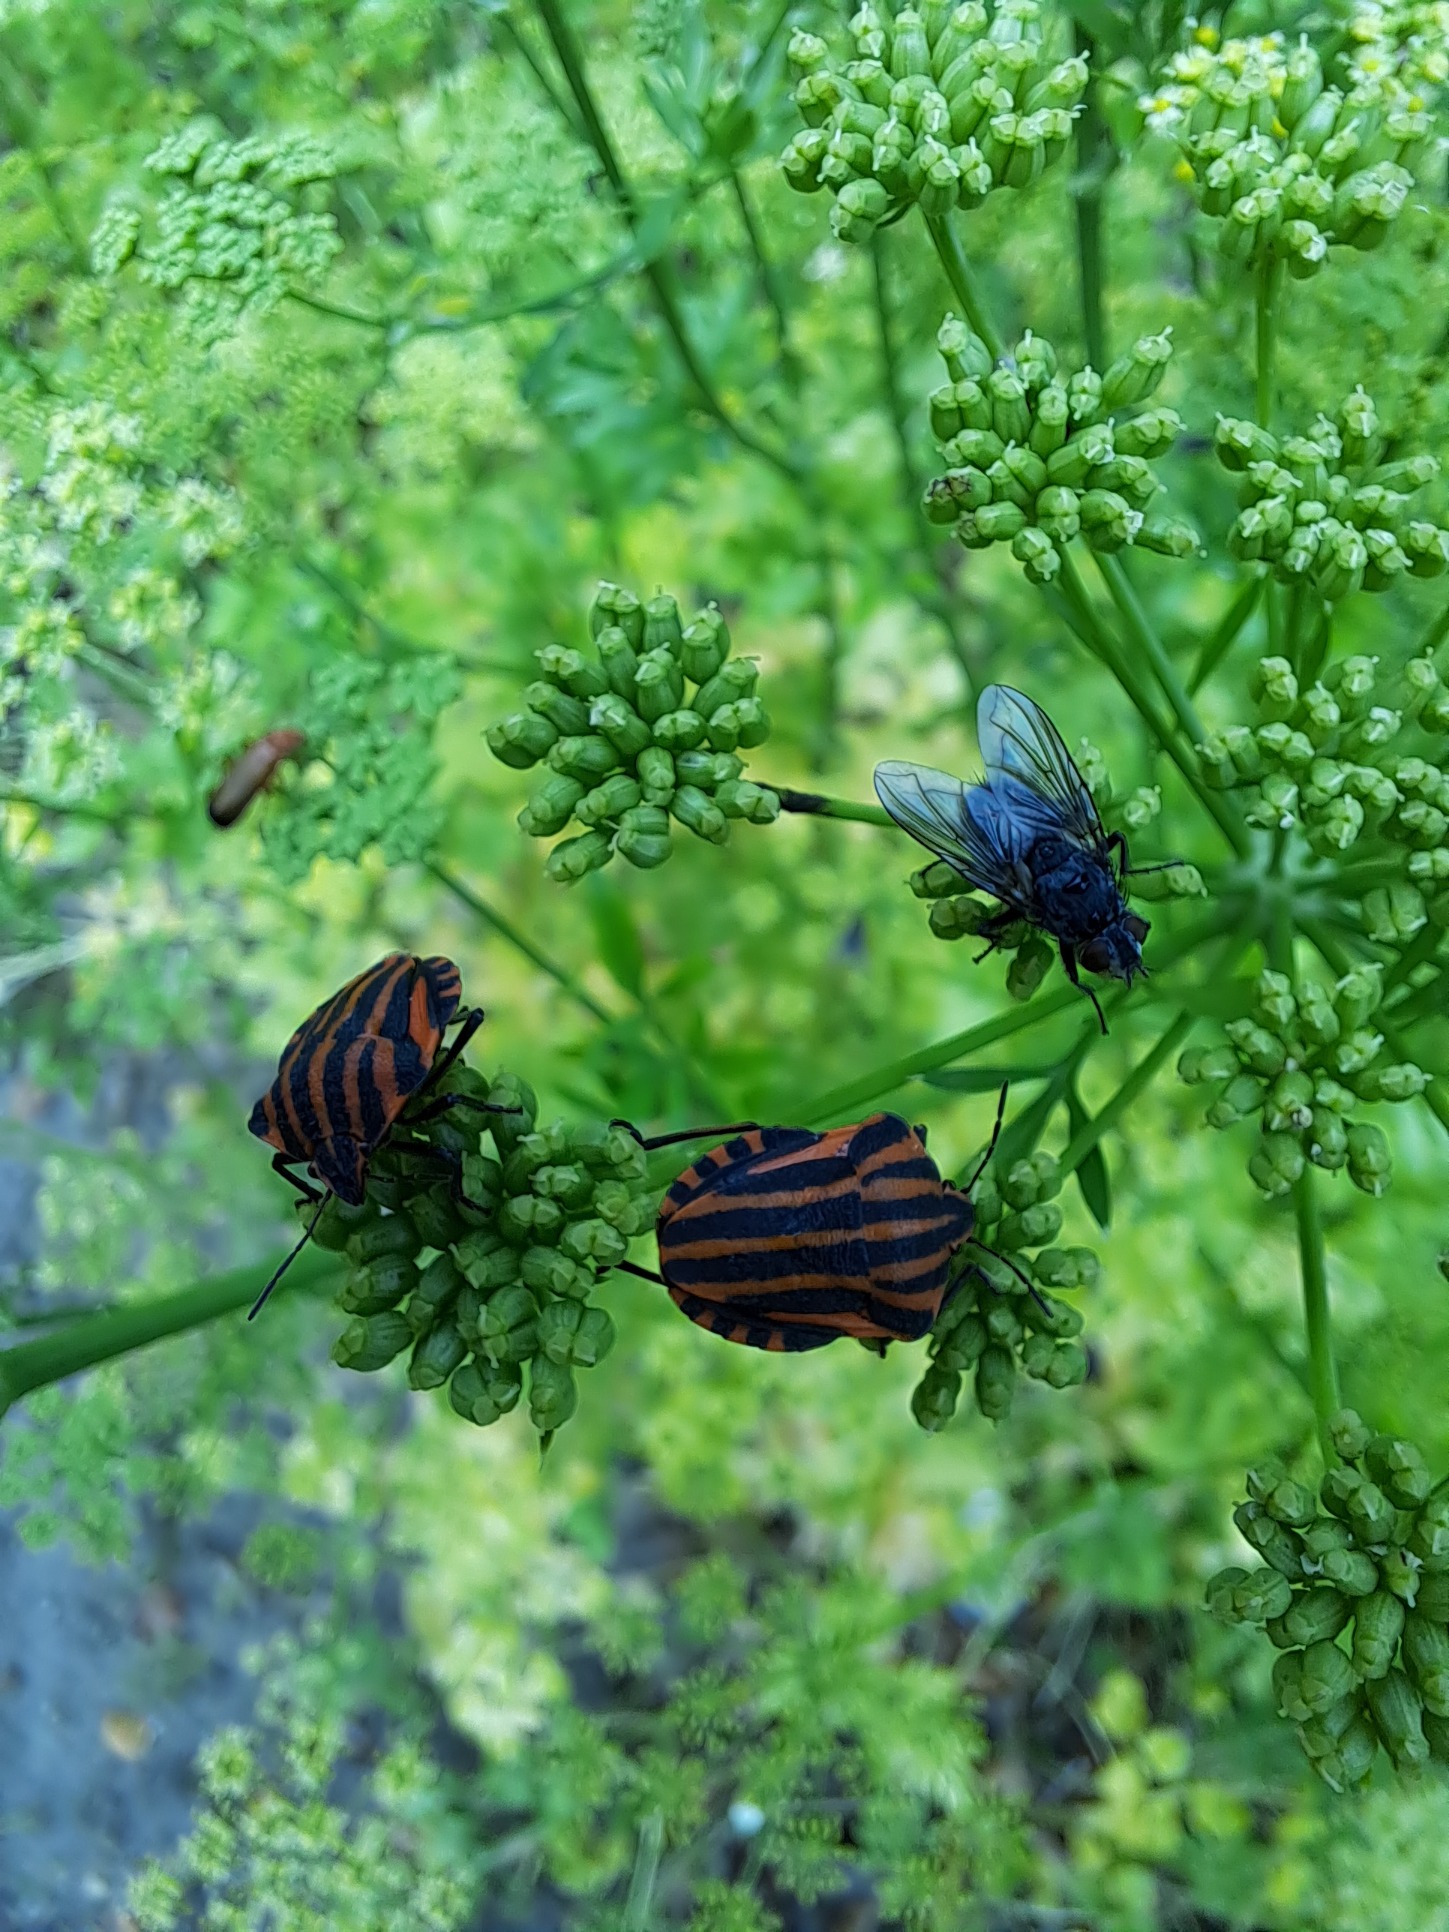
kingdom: Animalia
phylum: Arthropoda
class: Insecta
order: Hemiptera
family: Pentatomidae
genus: Graphosoma
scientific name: Graphosoma italicum
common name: Stribetæge
